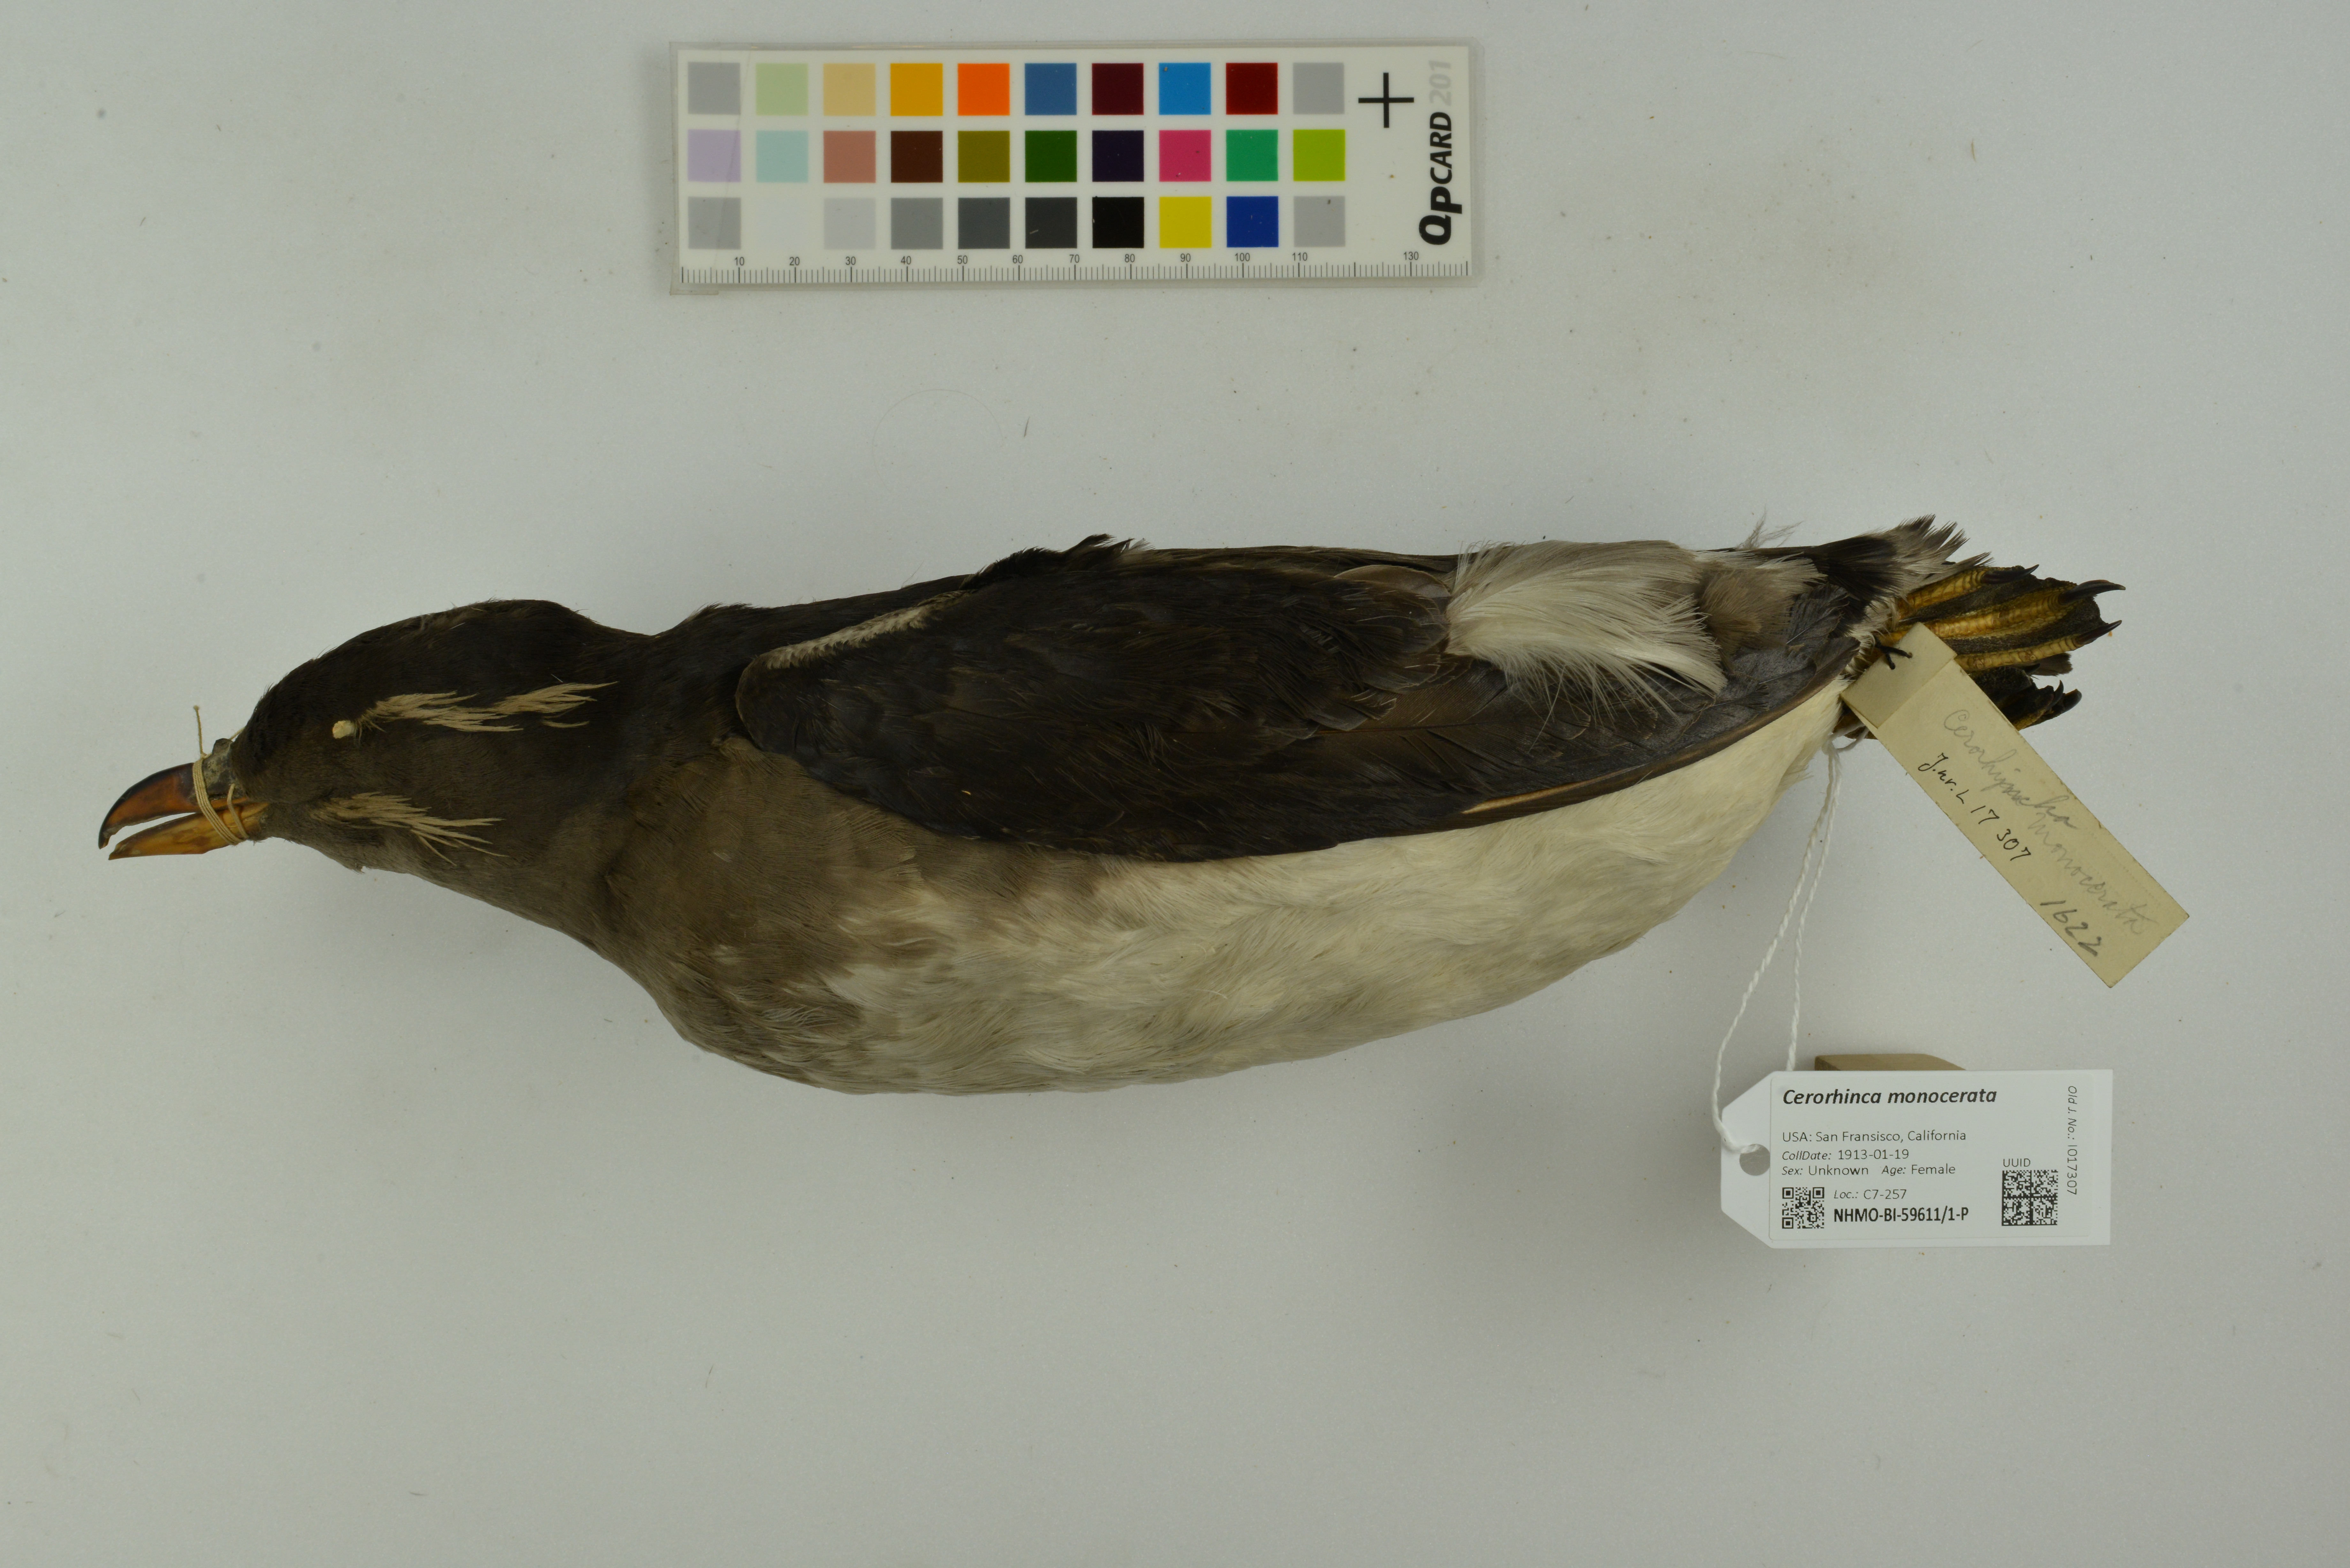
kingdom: Animalia
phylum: Chordata
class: Aves
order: Charadriiformes
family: Alcidae
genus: Cerorhinca
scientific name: Cerorhinca monocerata
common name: Rhinoceros auklet
